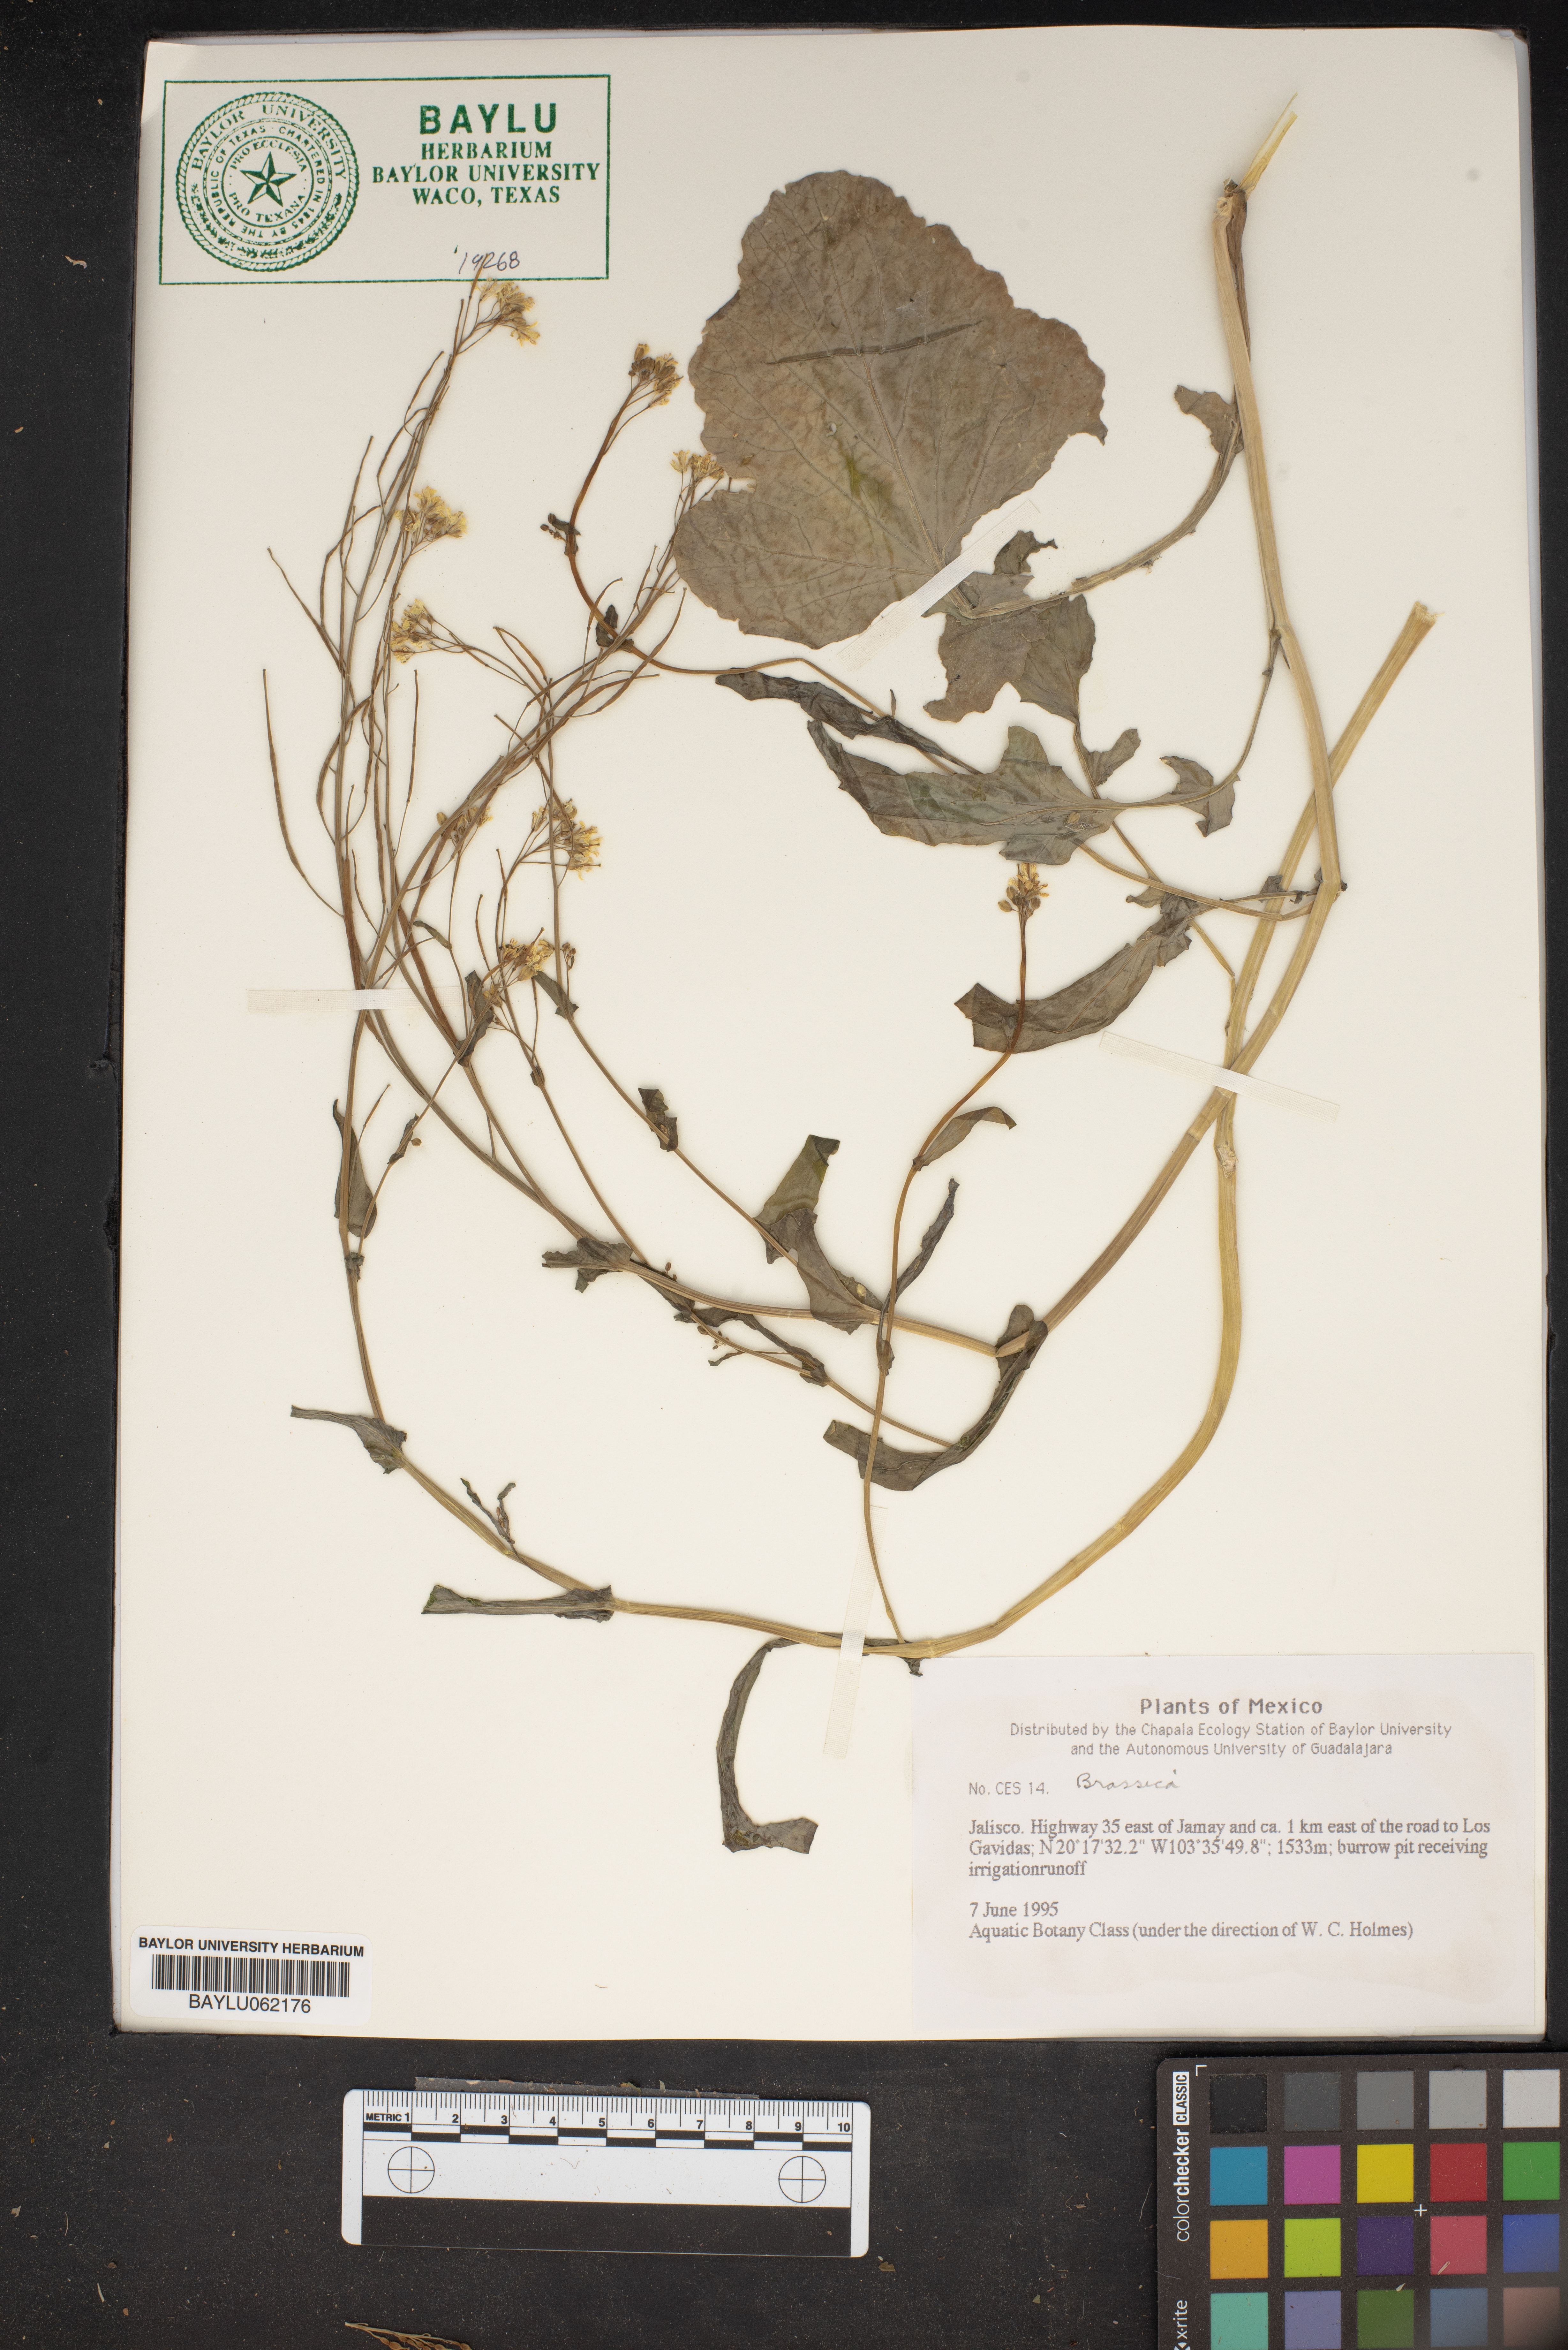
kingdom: Plantae
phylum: Tracheophyta
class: Magnoliopsida
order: Apiales
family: Araliaceae
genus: Heptapleurum
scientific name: Heptapleurum
